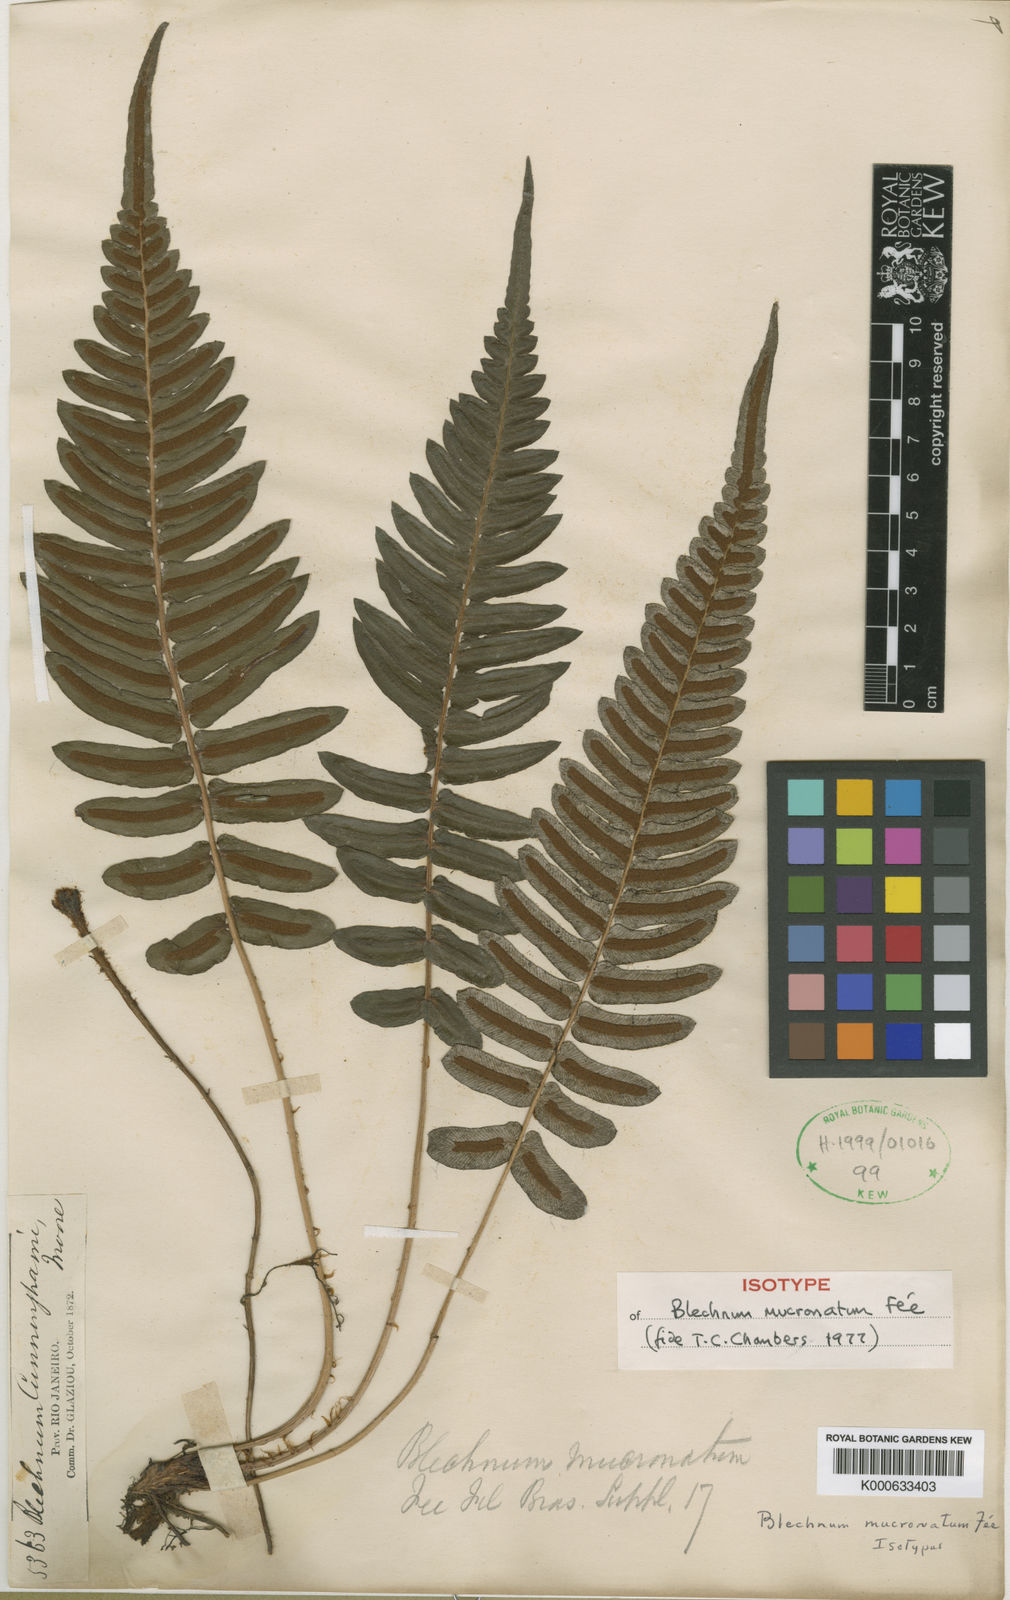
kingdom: Plantae
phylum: Tracheophyta
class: Polypodiopsida
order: Polypodiales
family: Blechnaceae
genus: Blechnum
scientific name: Blechnum occidentale
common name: Hammock fern
